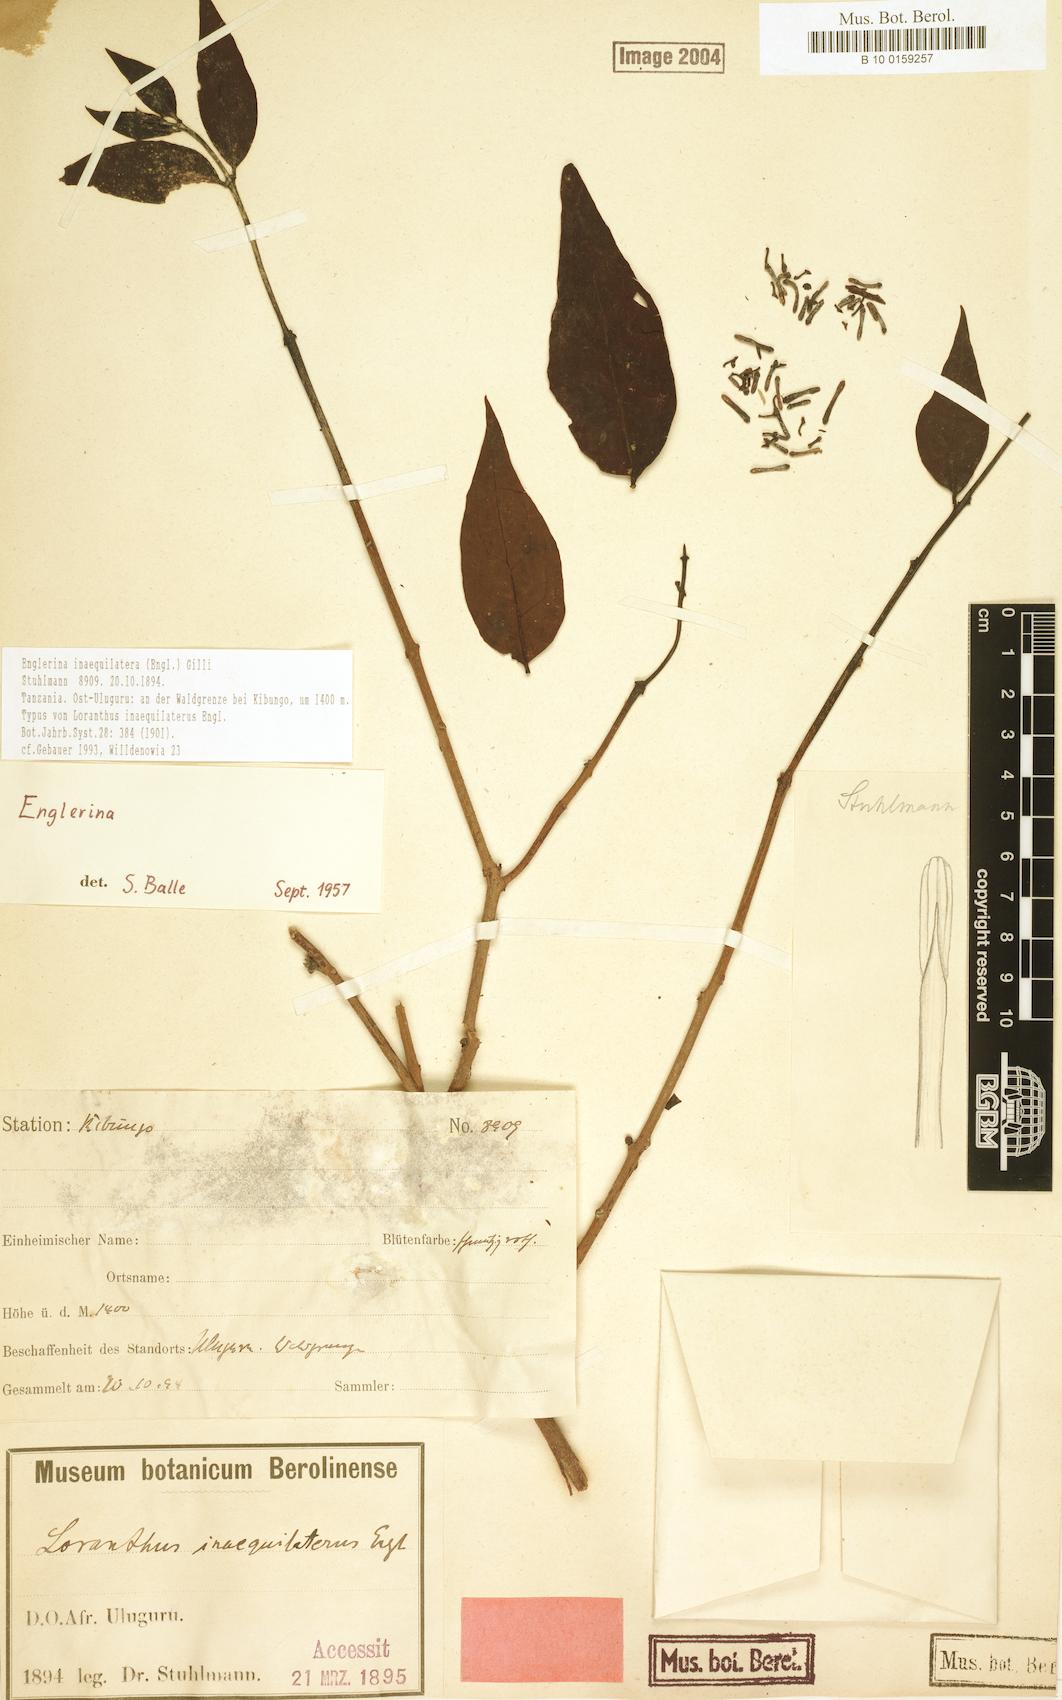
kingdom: Plantae
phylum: Tracheophyta
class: Magnoliopsida
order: Santalales
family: Loranthaceae
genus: Englerina
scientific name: Englerina inaequilatera
